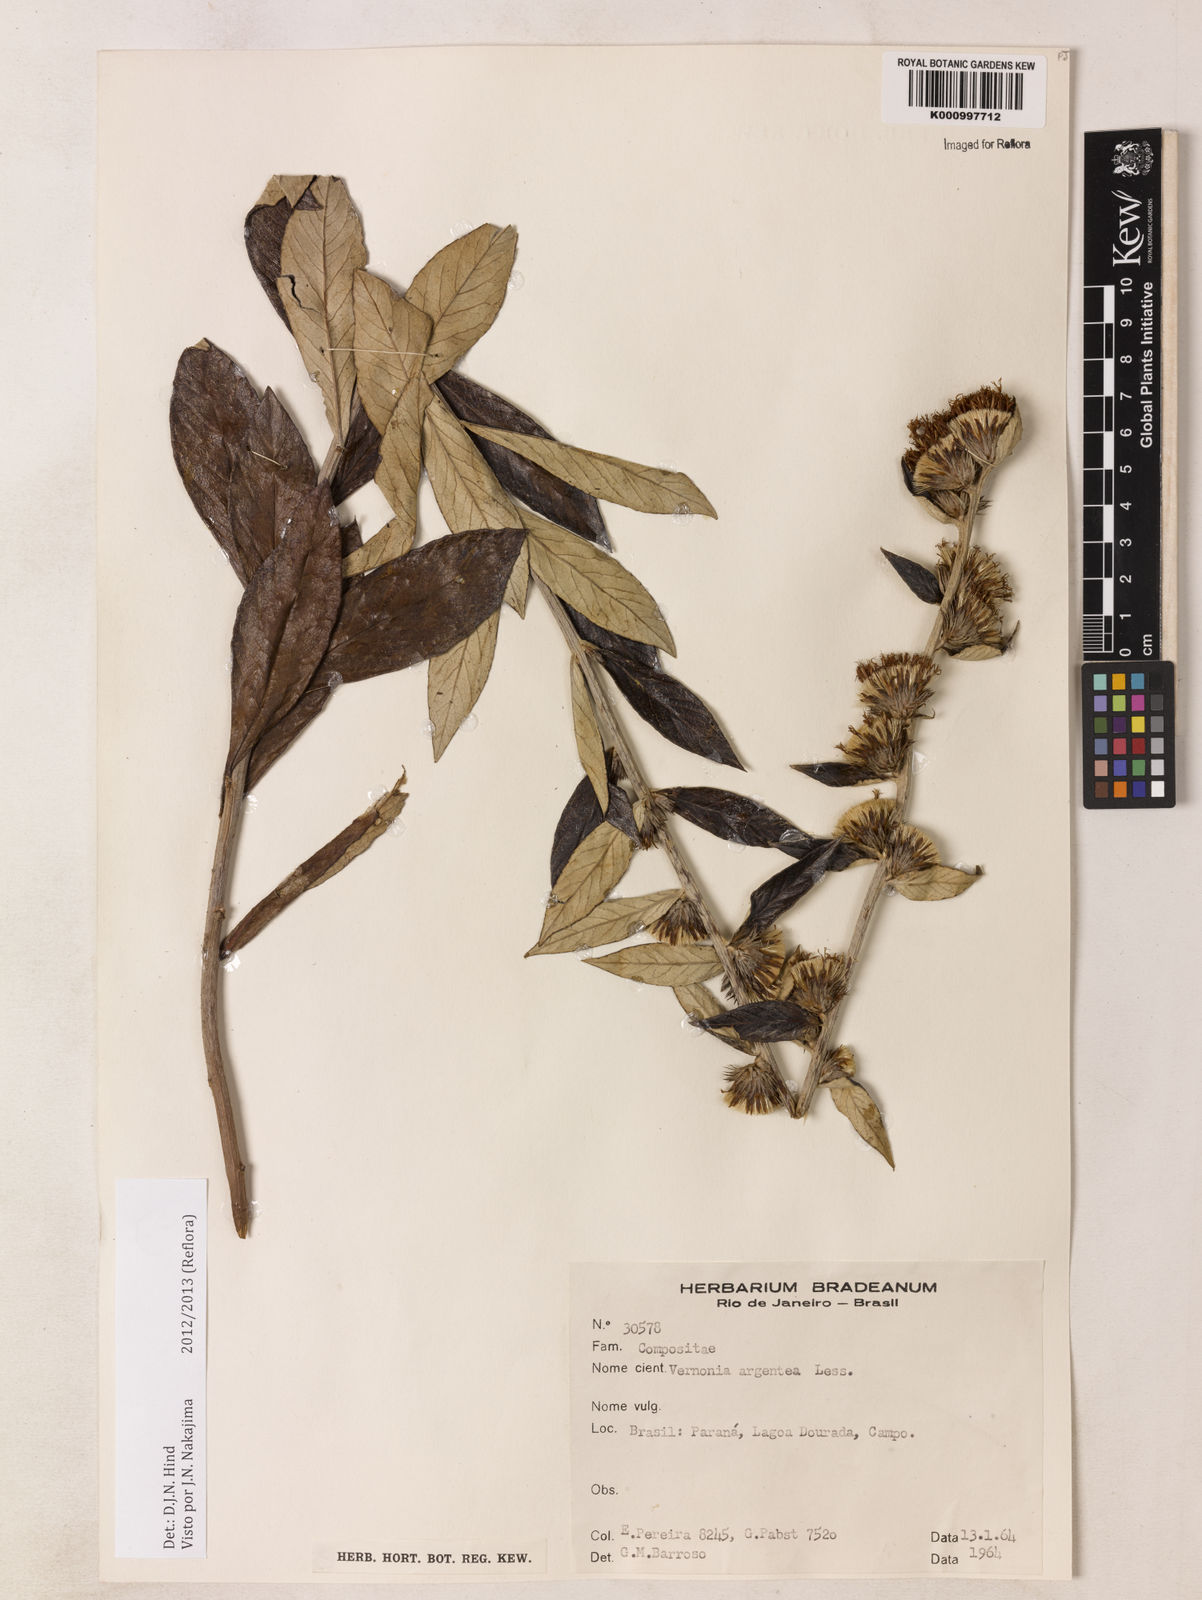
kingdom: Plantae
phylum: Tracheophyta
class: Magnoliopsida
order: Asterales
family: Asteraceae
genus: Lessingianthus
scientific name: Lessingianthus argenteus
